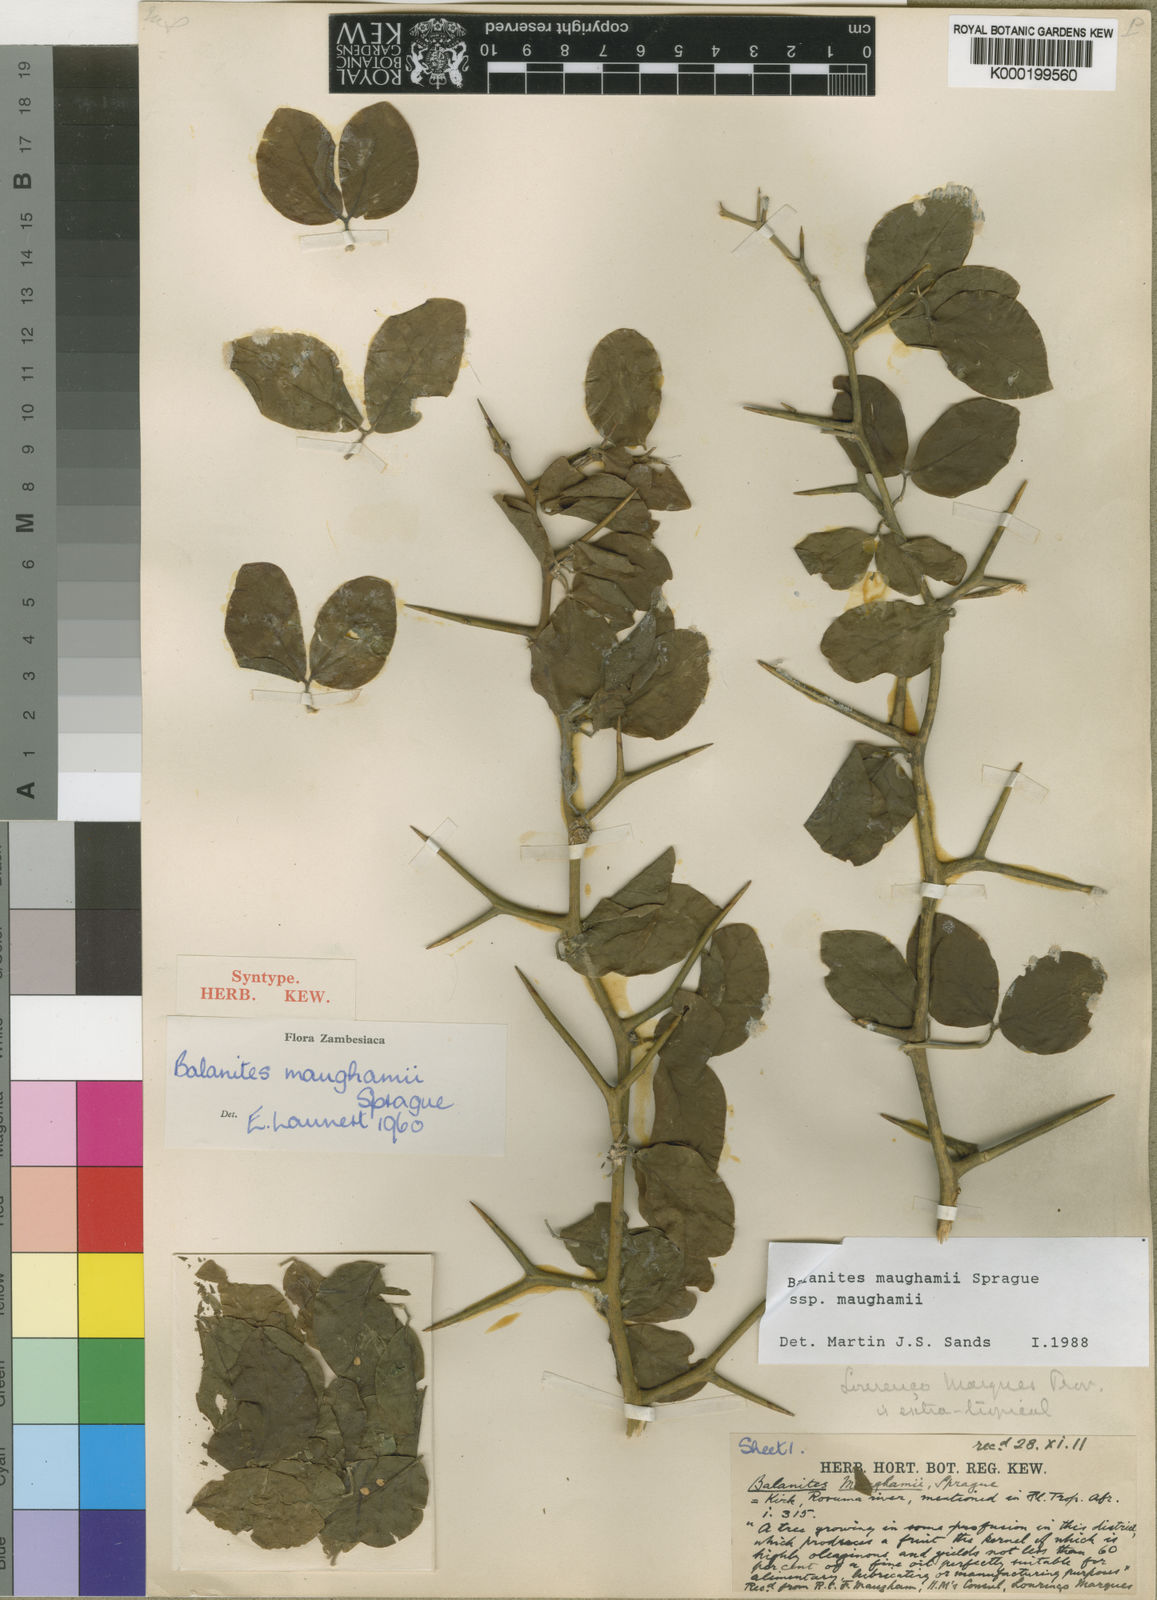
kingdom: Plantae
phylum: Tracheophyta
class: Magnoliopsida
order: Zygophyllales
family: Zygophyllaceae
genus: Balanites
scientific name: Balanites maughamii
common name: Torchwood
